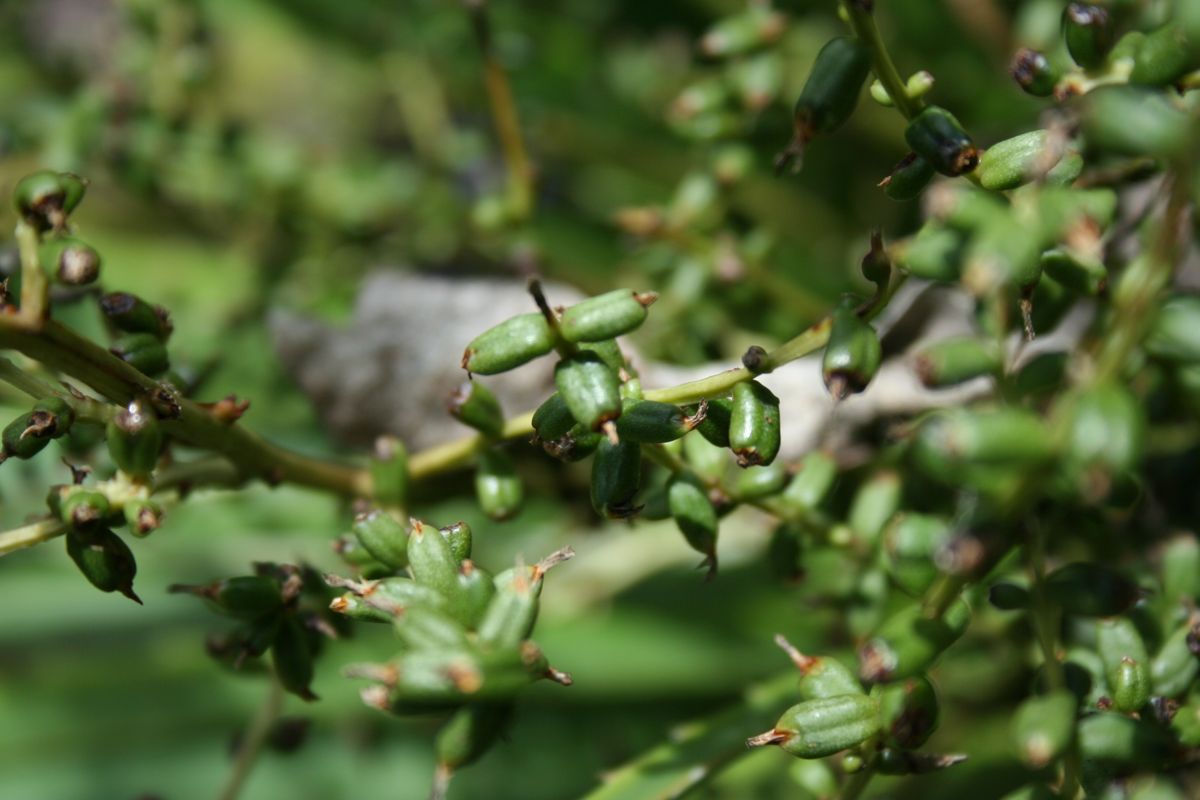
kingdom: Plantae
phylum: Tracheophyta
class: Liliopsida
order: Poales
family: Bromeliaceae
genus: Hechtia
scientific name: Hechtia guatemalensis
